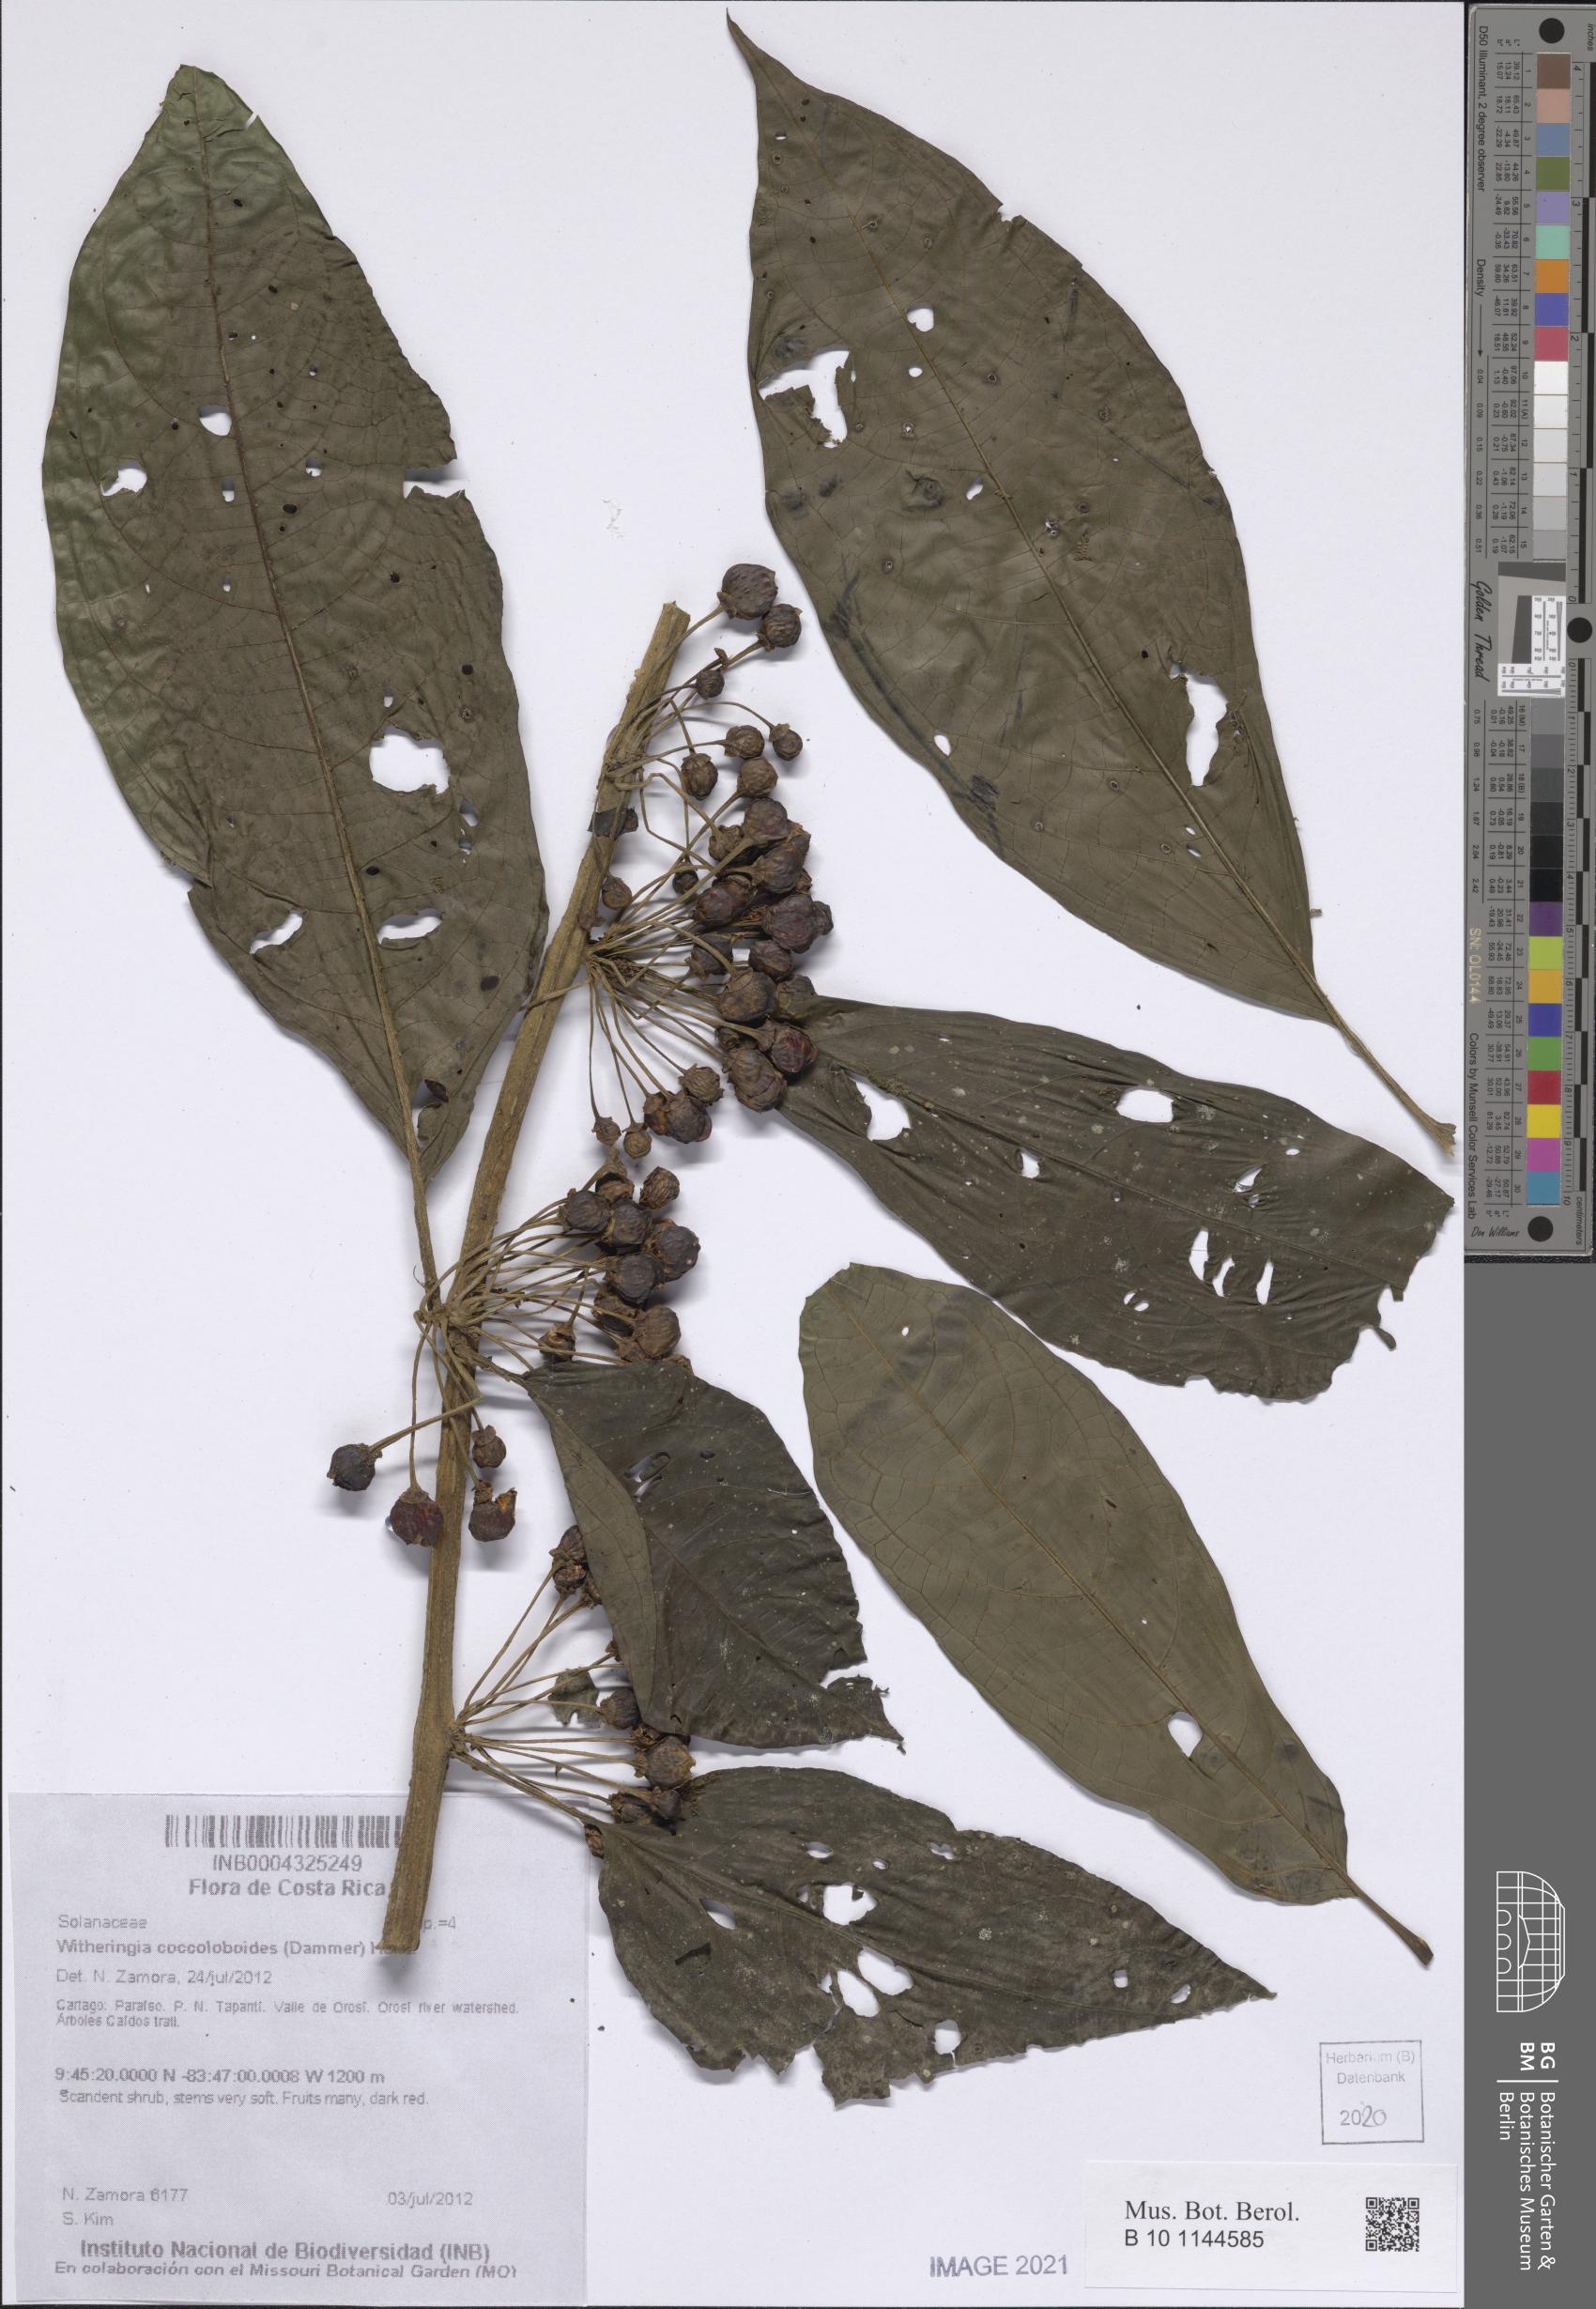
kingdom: Plantae
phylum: Tracheophyta
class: Magnoliopsida
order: Solanales
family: Solanaceae
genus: Witheringia
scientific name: Witheringia coccoloboides
